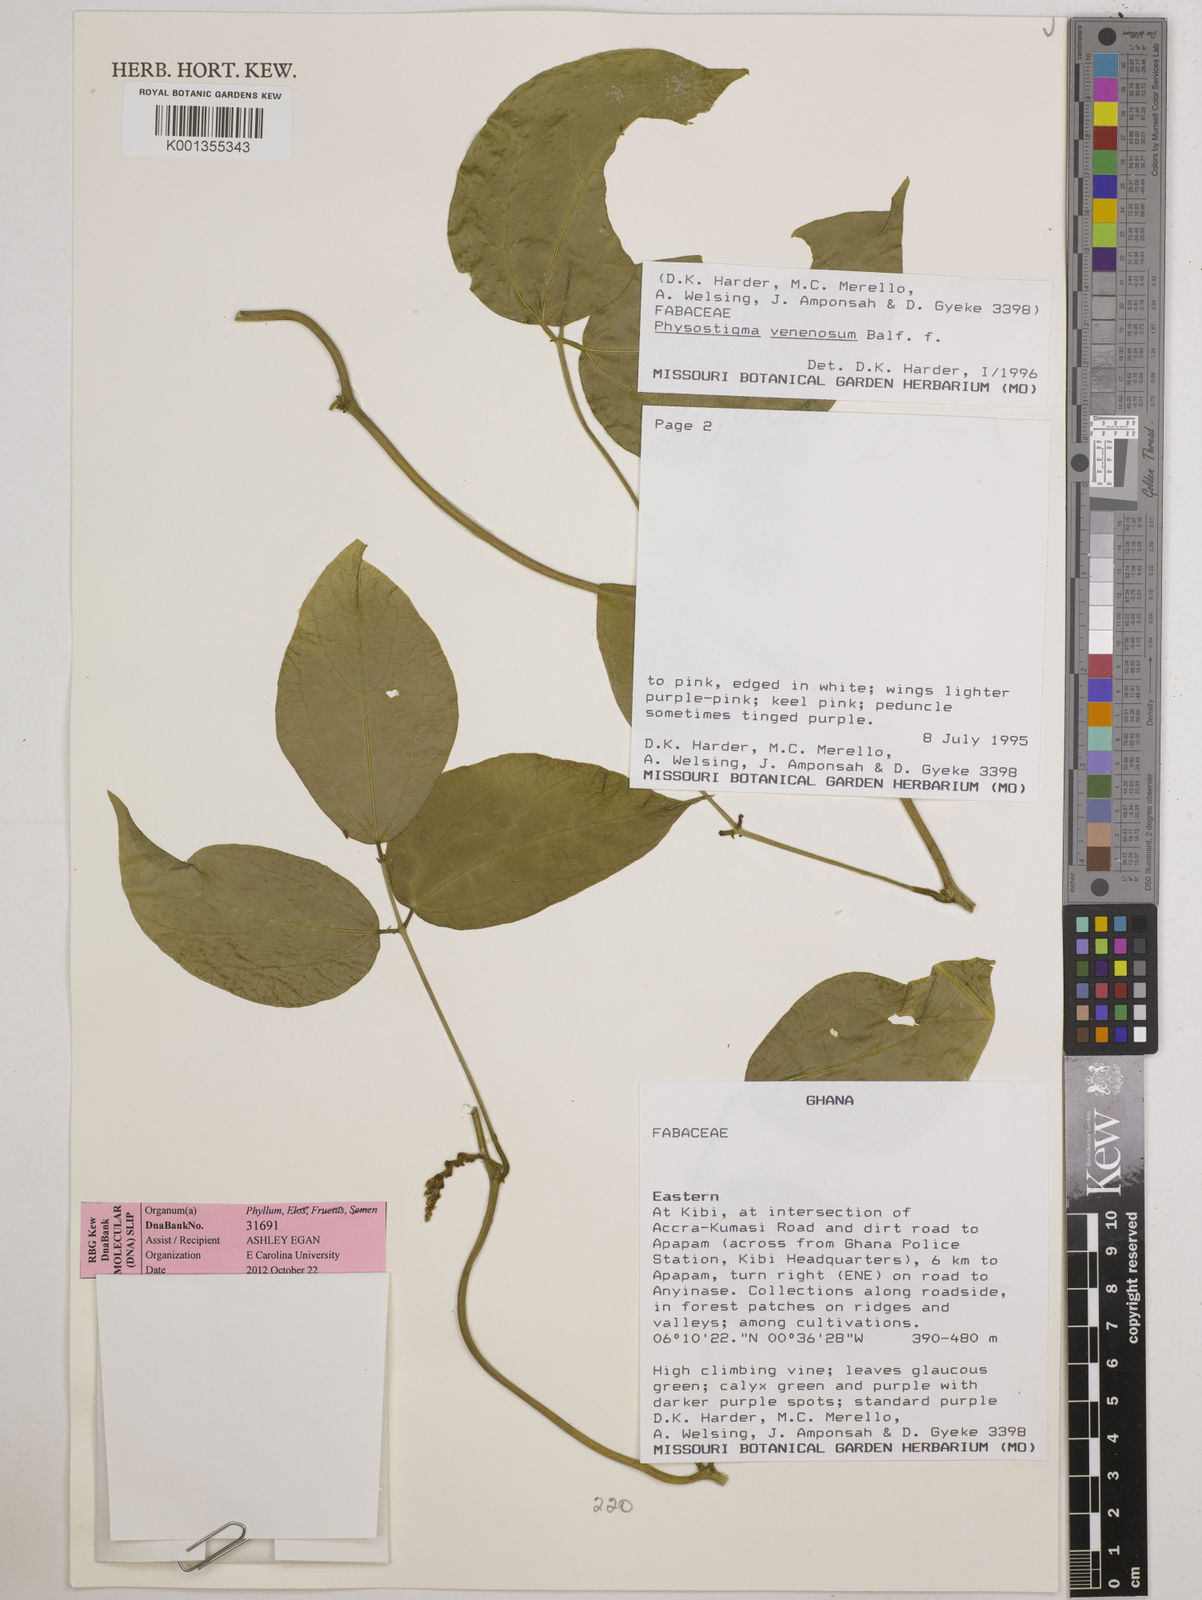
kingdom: Plantae
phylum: Tracheophyta
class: Magnoliopsida
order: Fabales
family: Fabaceae
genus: Physostigma
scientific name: Physostigma venenosum
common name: Calabar-bean
